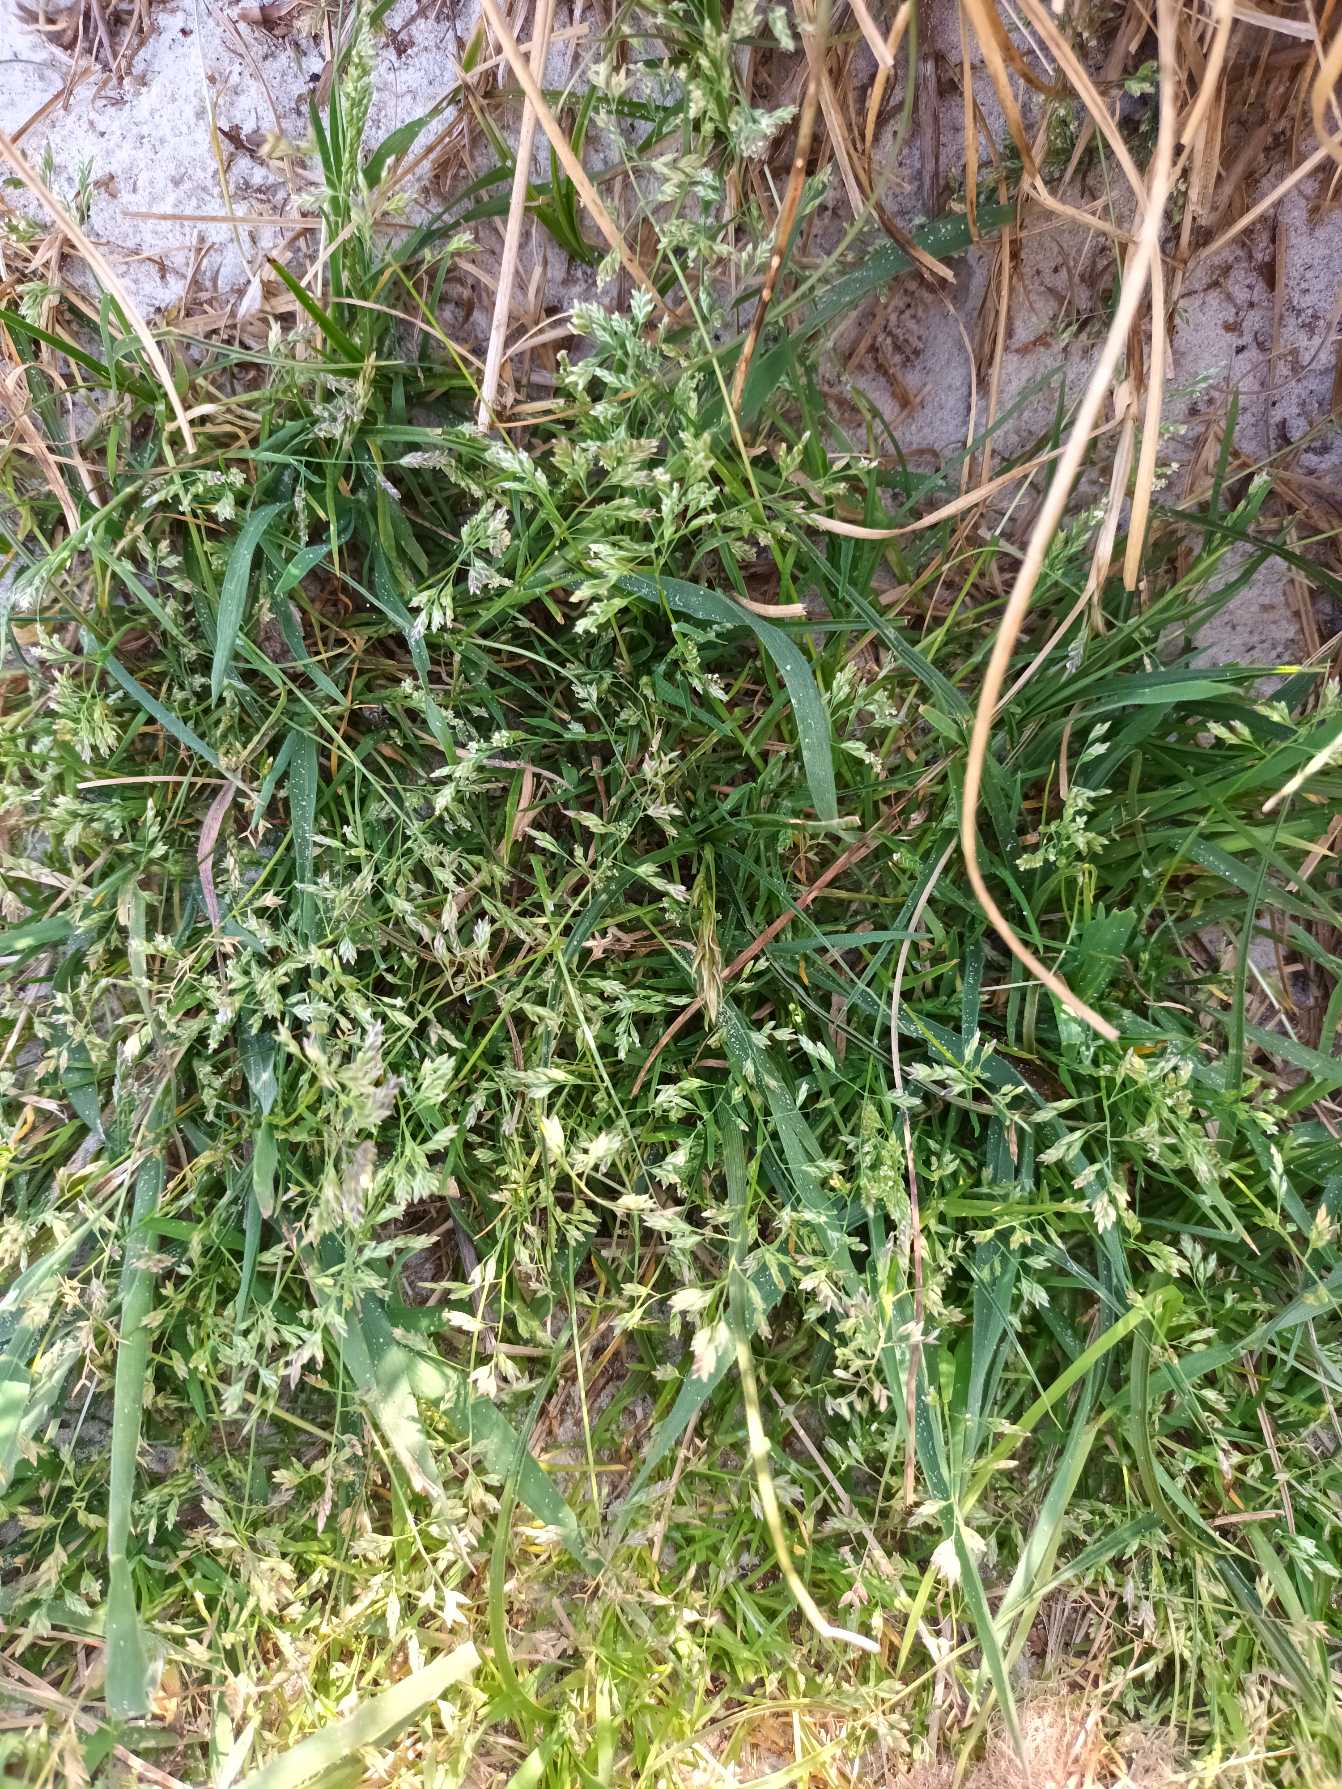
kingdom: Plantae
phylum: Tracheophyta
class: Liliopsida
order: Poales
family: Poaceae
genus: Poa
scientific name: Poa annua
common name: Enårig rapgræs
